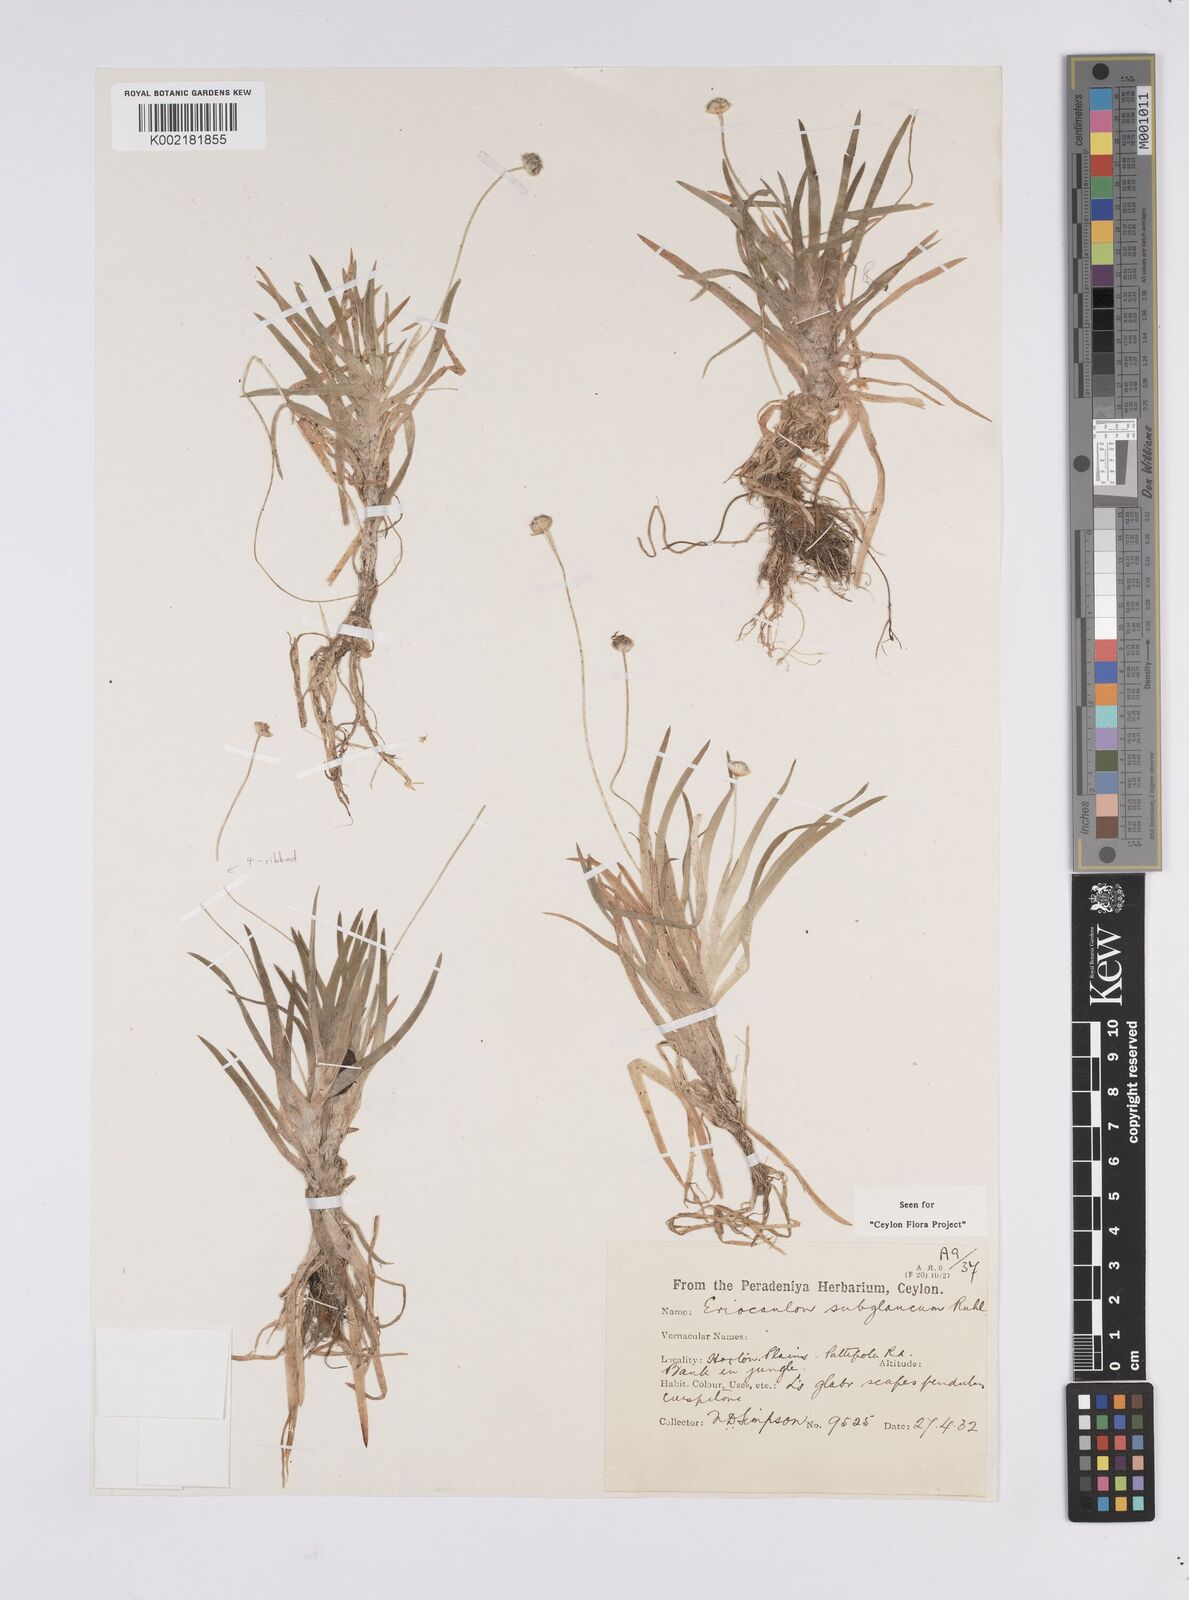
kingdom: Plantae
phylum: Tracheophyta
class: Liliopsida
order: Poales
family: Eriocaulaceae
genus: Eriocaulon
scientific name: Eriocaulon subglaucum
